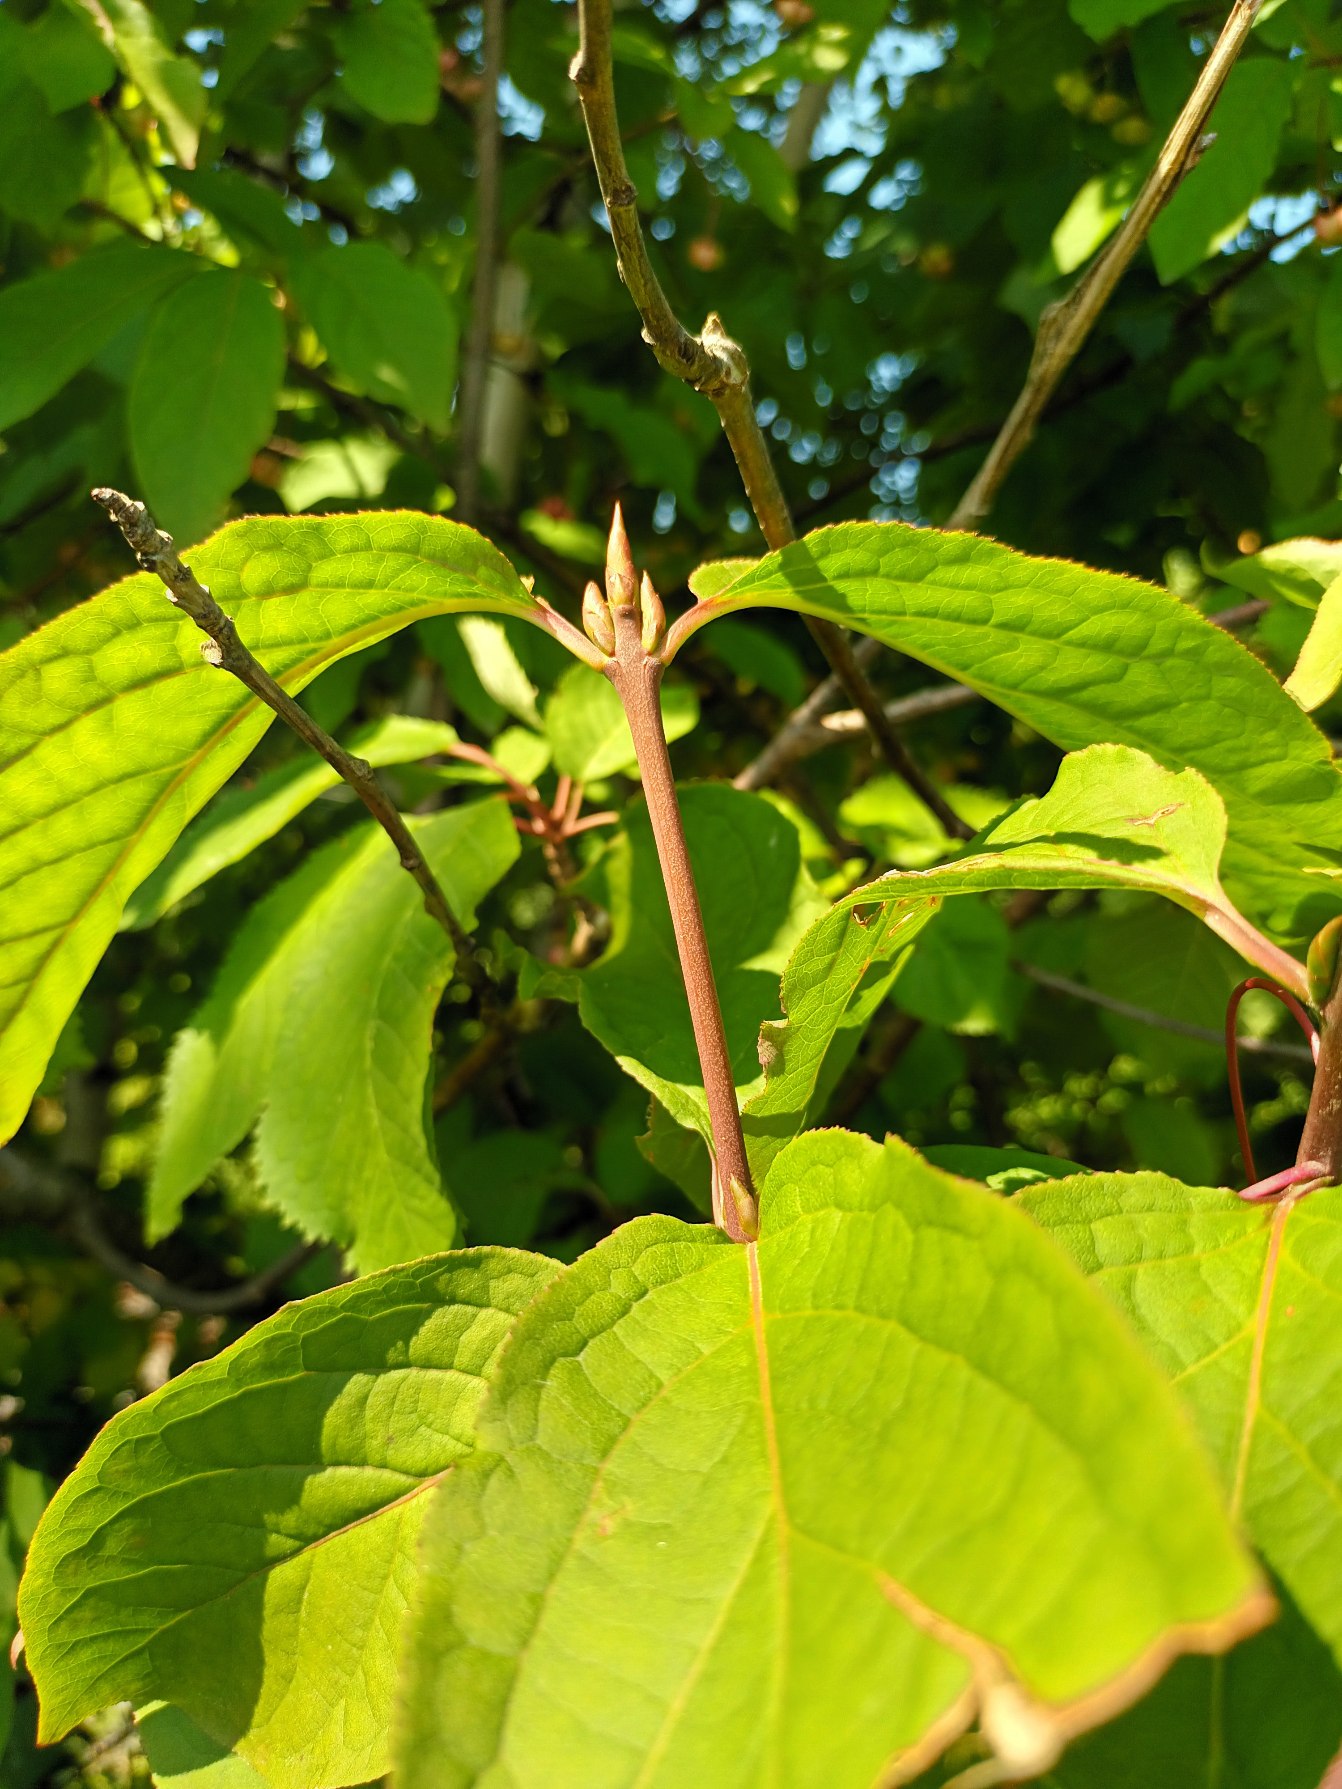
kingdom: Plantae
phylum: Tracheophyta
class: Magnoliopsida
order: Celastrales
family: Celastraceae
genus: Euonymus
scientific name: Euonymus latifolius
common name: Storbladet benved
